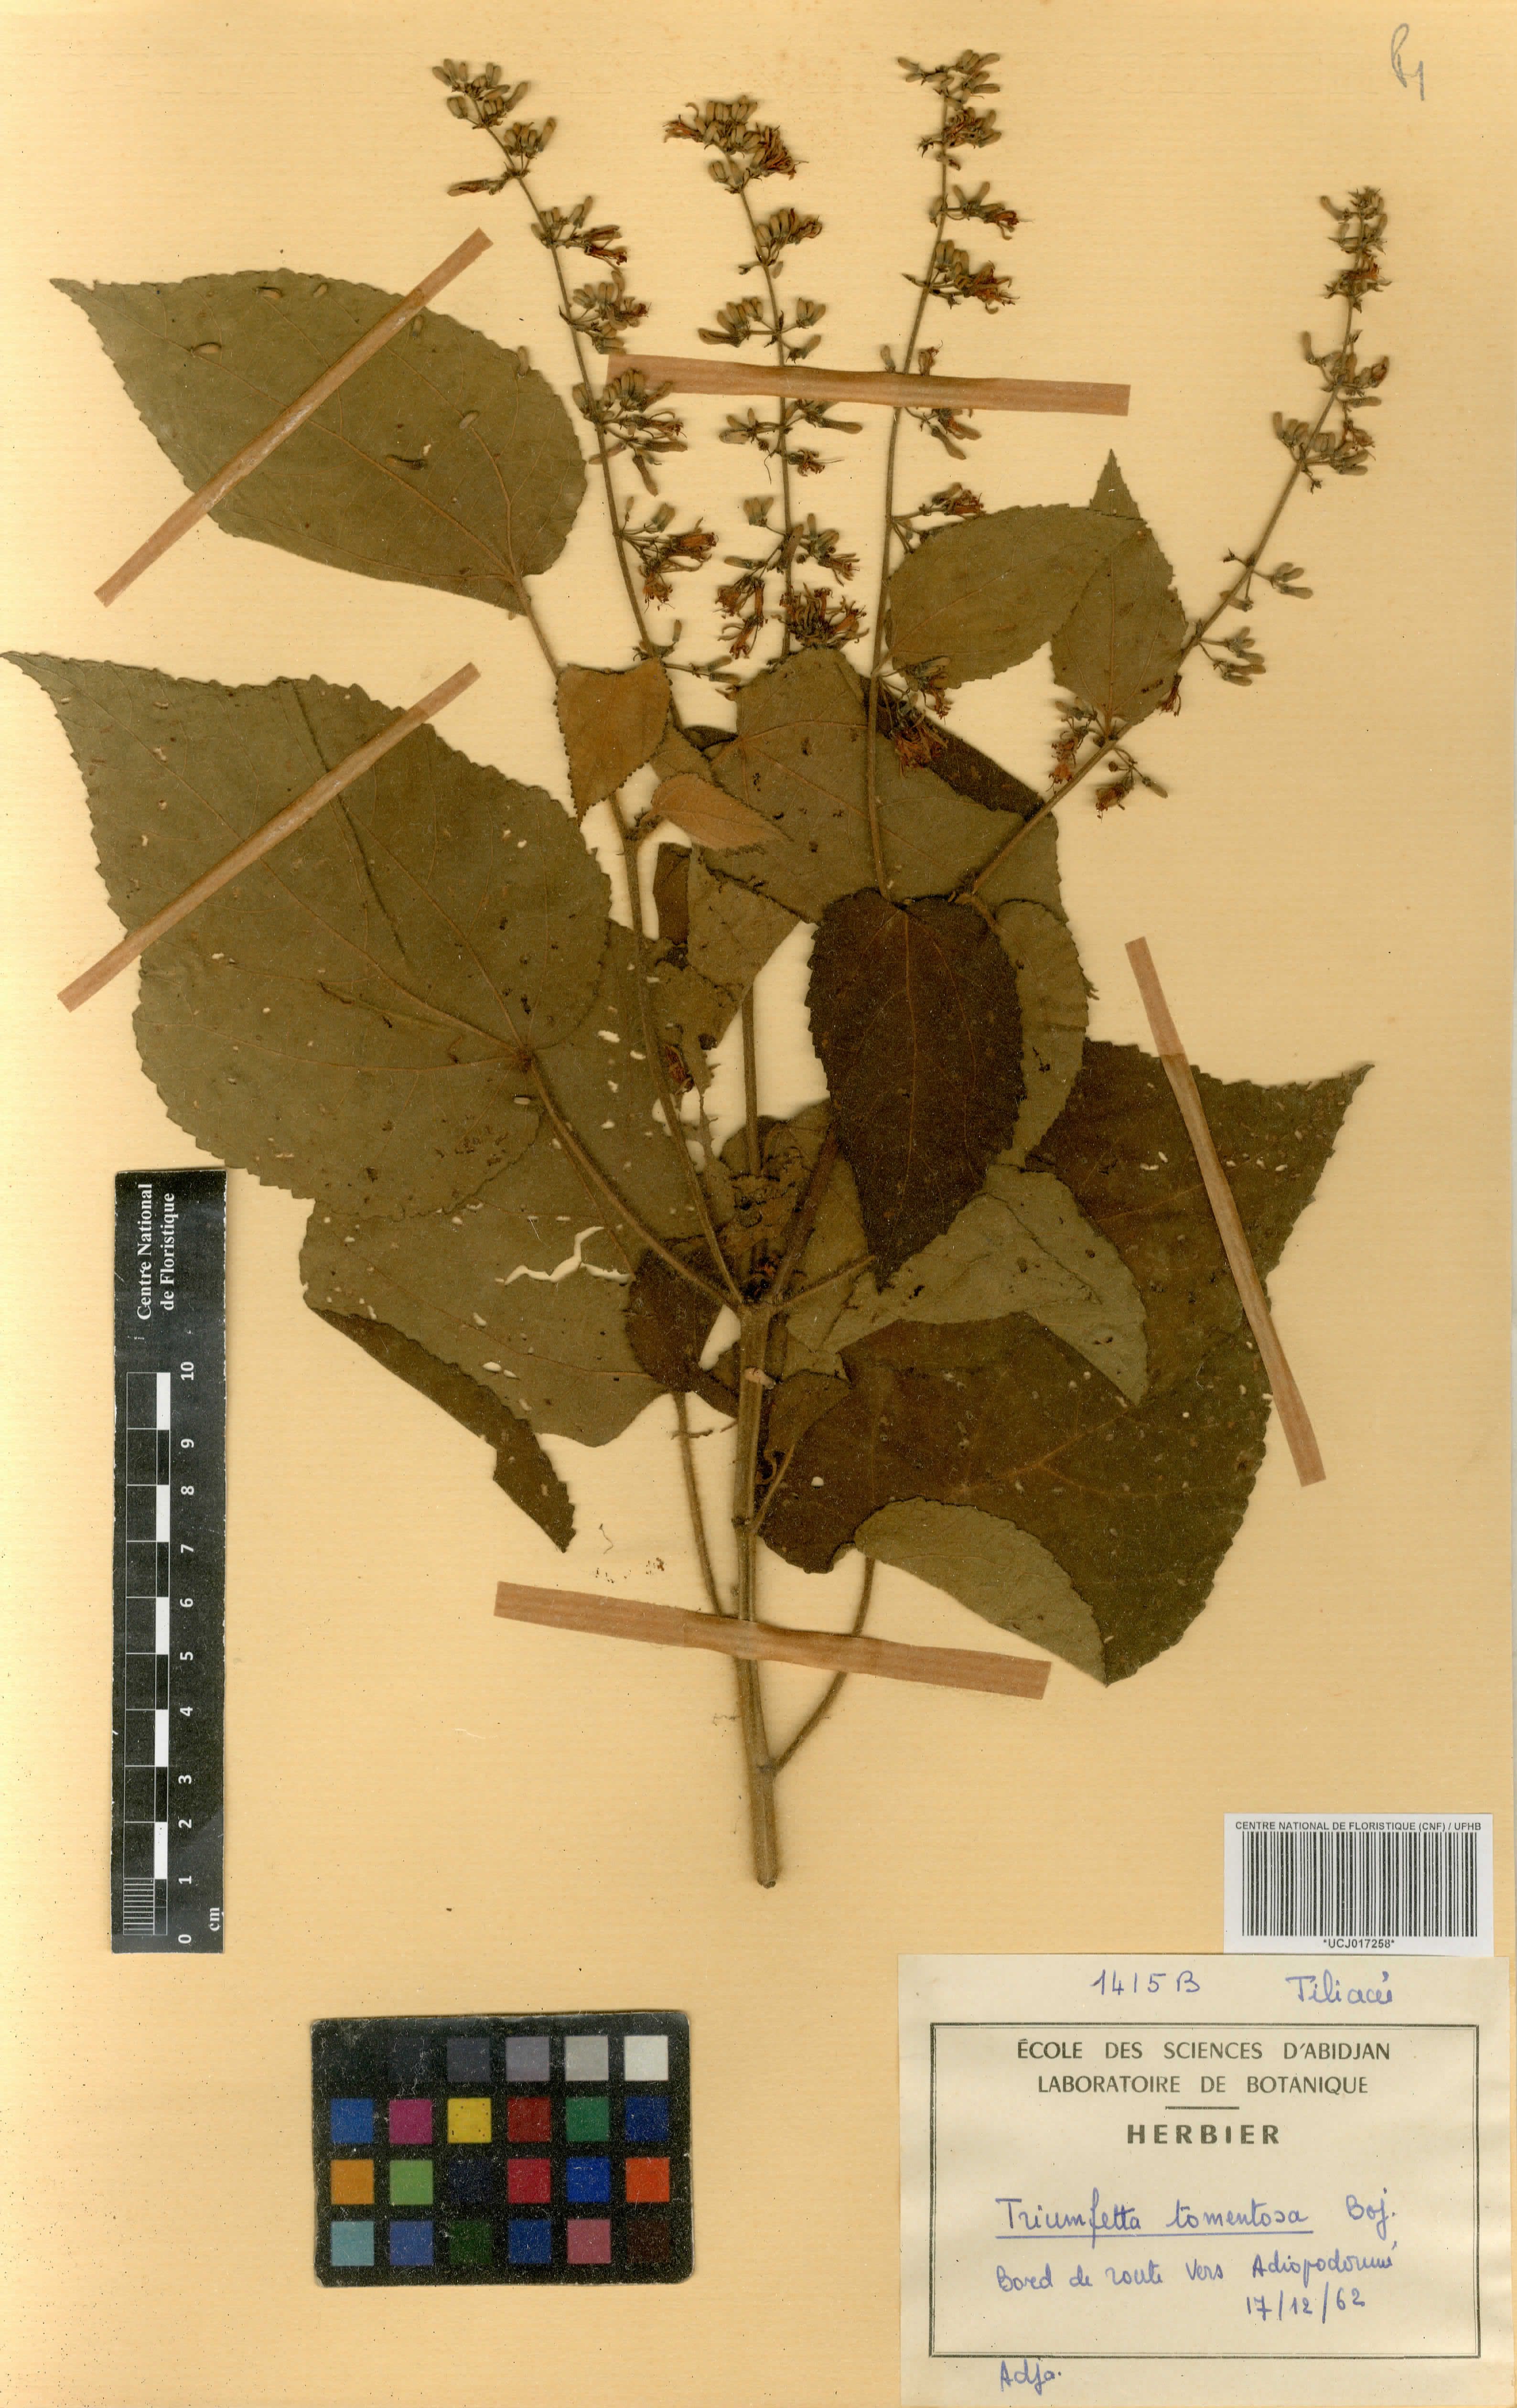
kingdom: Plantae
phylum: Tracheophyta
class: Magnoliopsida
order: Malvales
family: Malvaceae
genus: Triumfetta
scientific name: Triumfetta tomentosa
